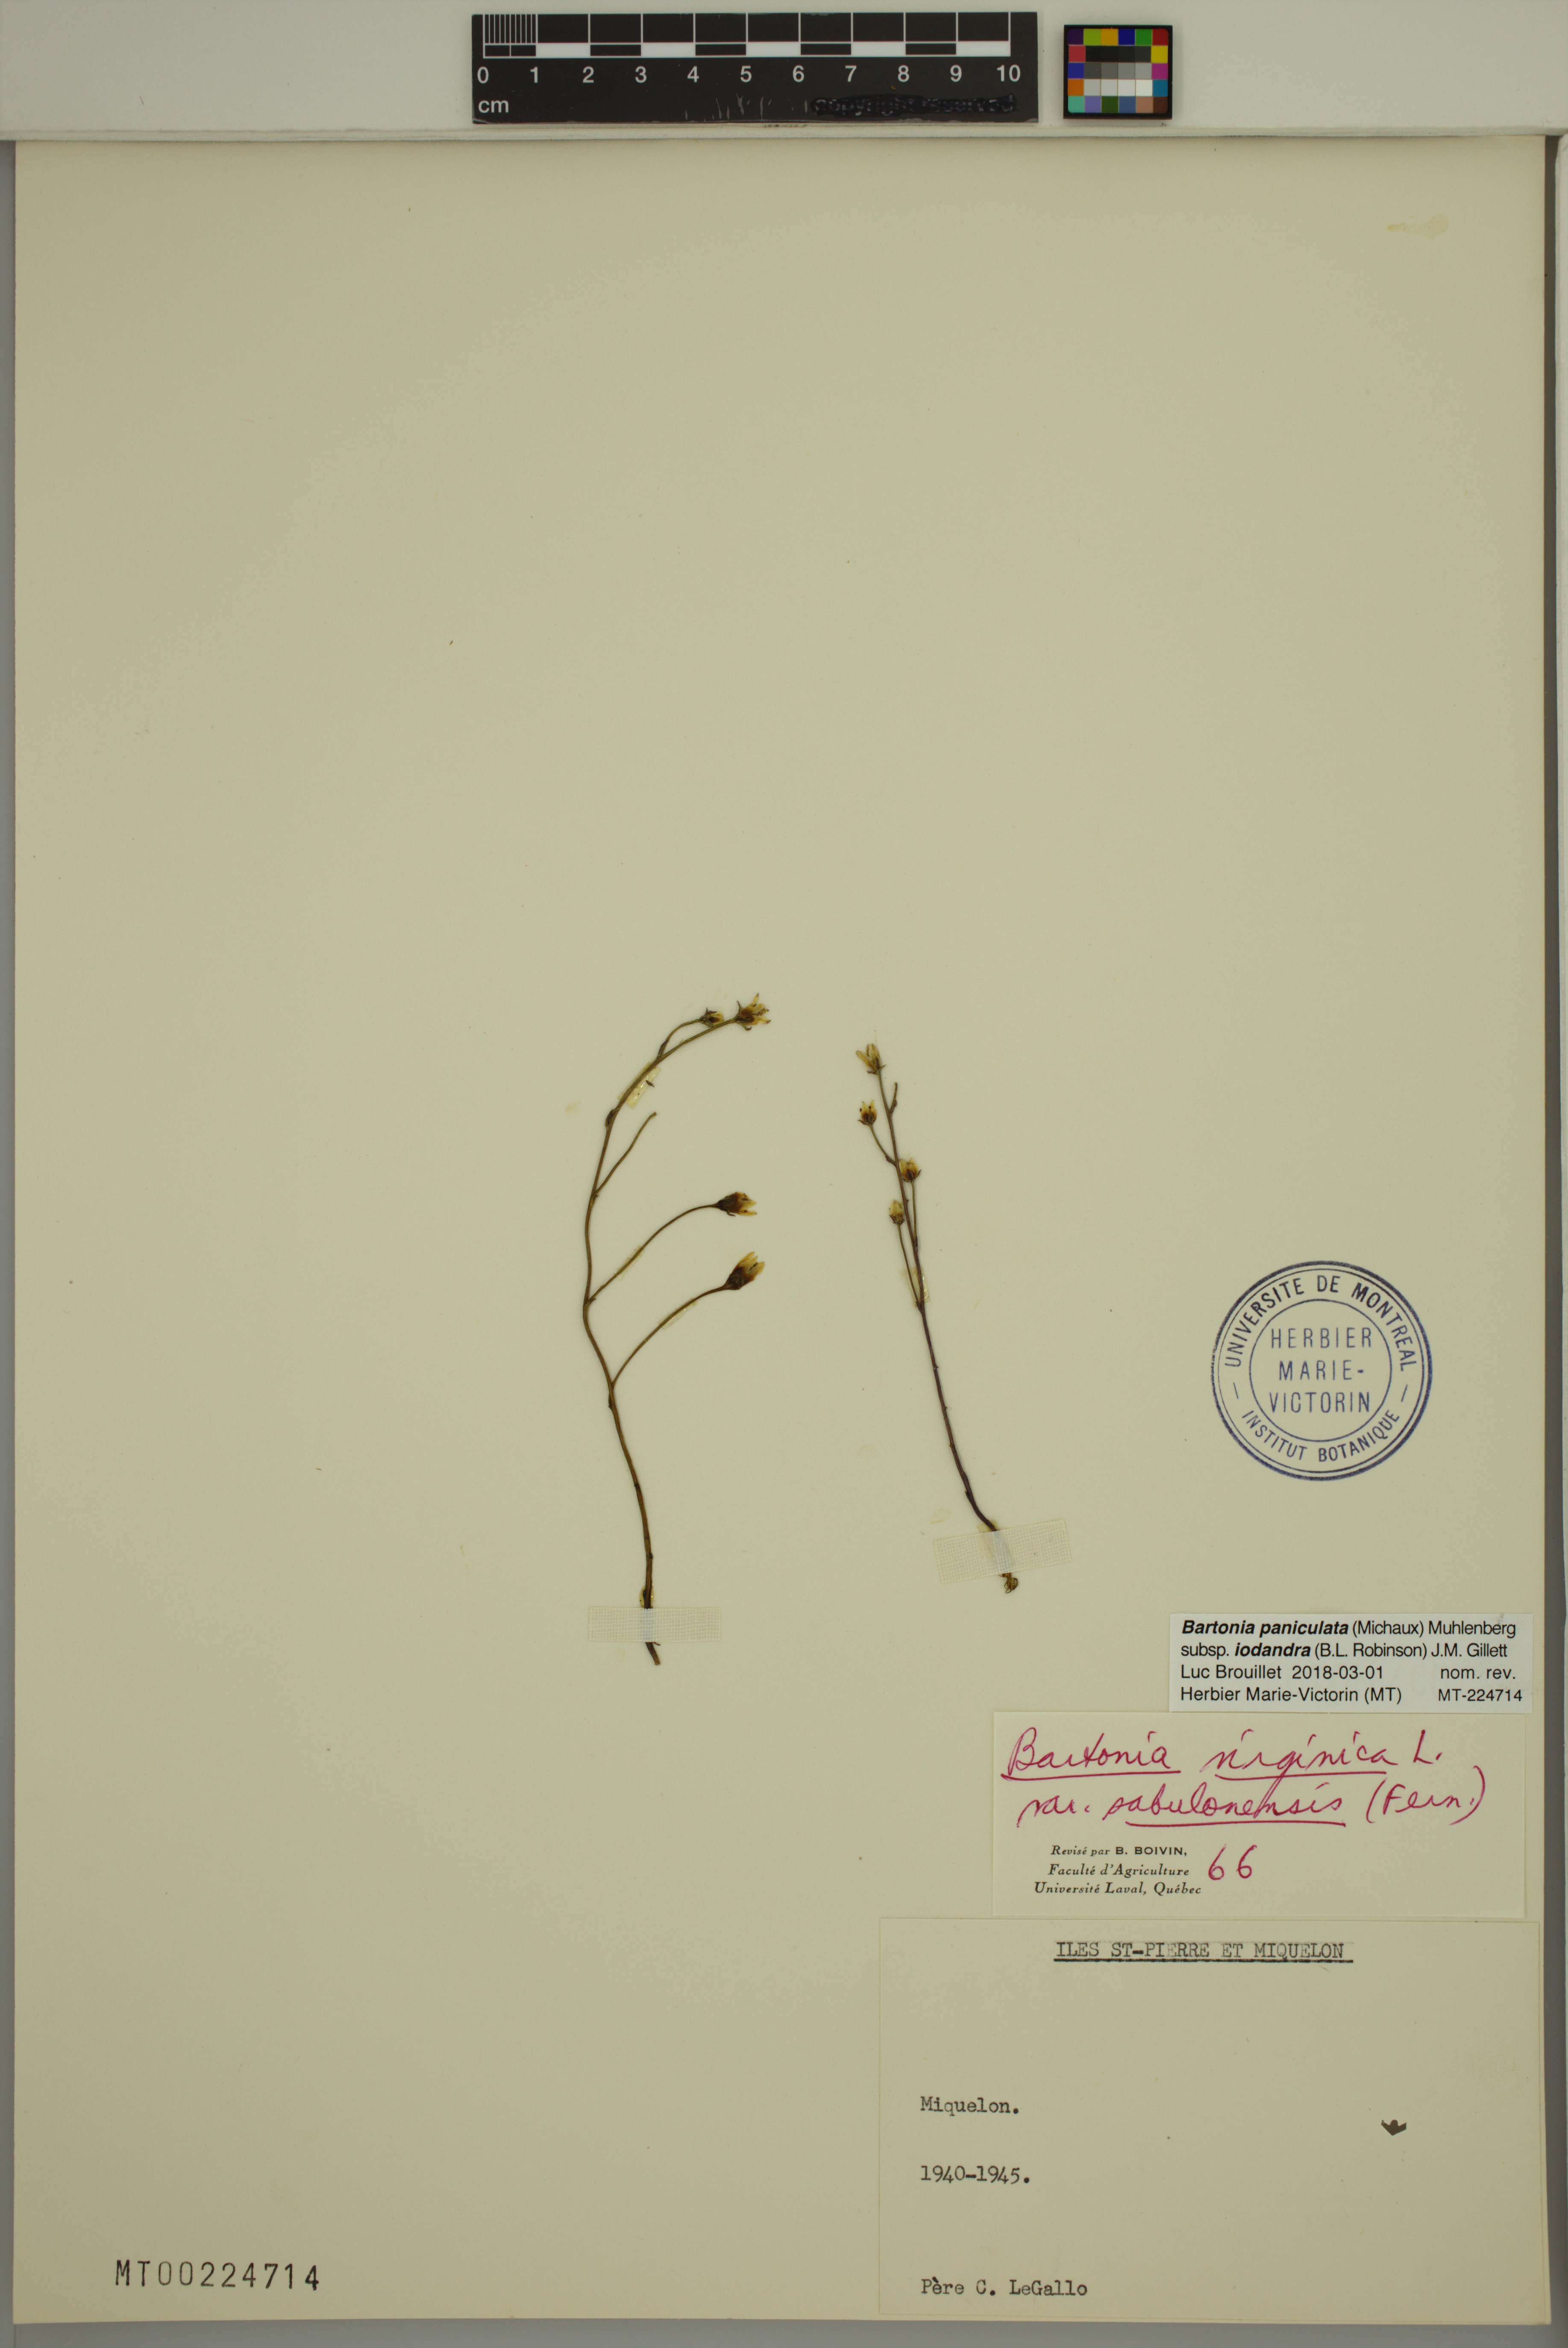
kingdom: Plantae
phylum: Tracheophyta
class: Magnoliopsida
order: Gentianales
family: Gentianaceae
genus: Bartonia
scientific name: Bartonia paniculata
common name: Branched bartonia
